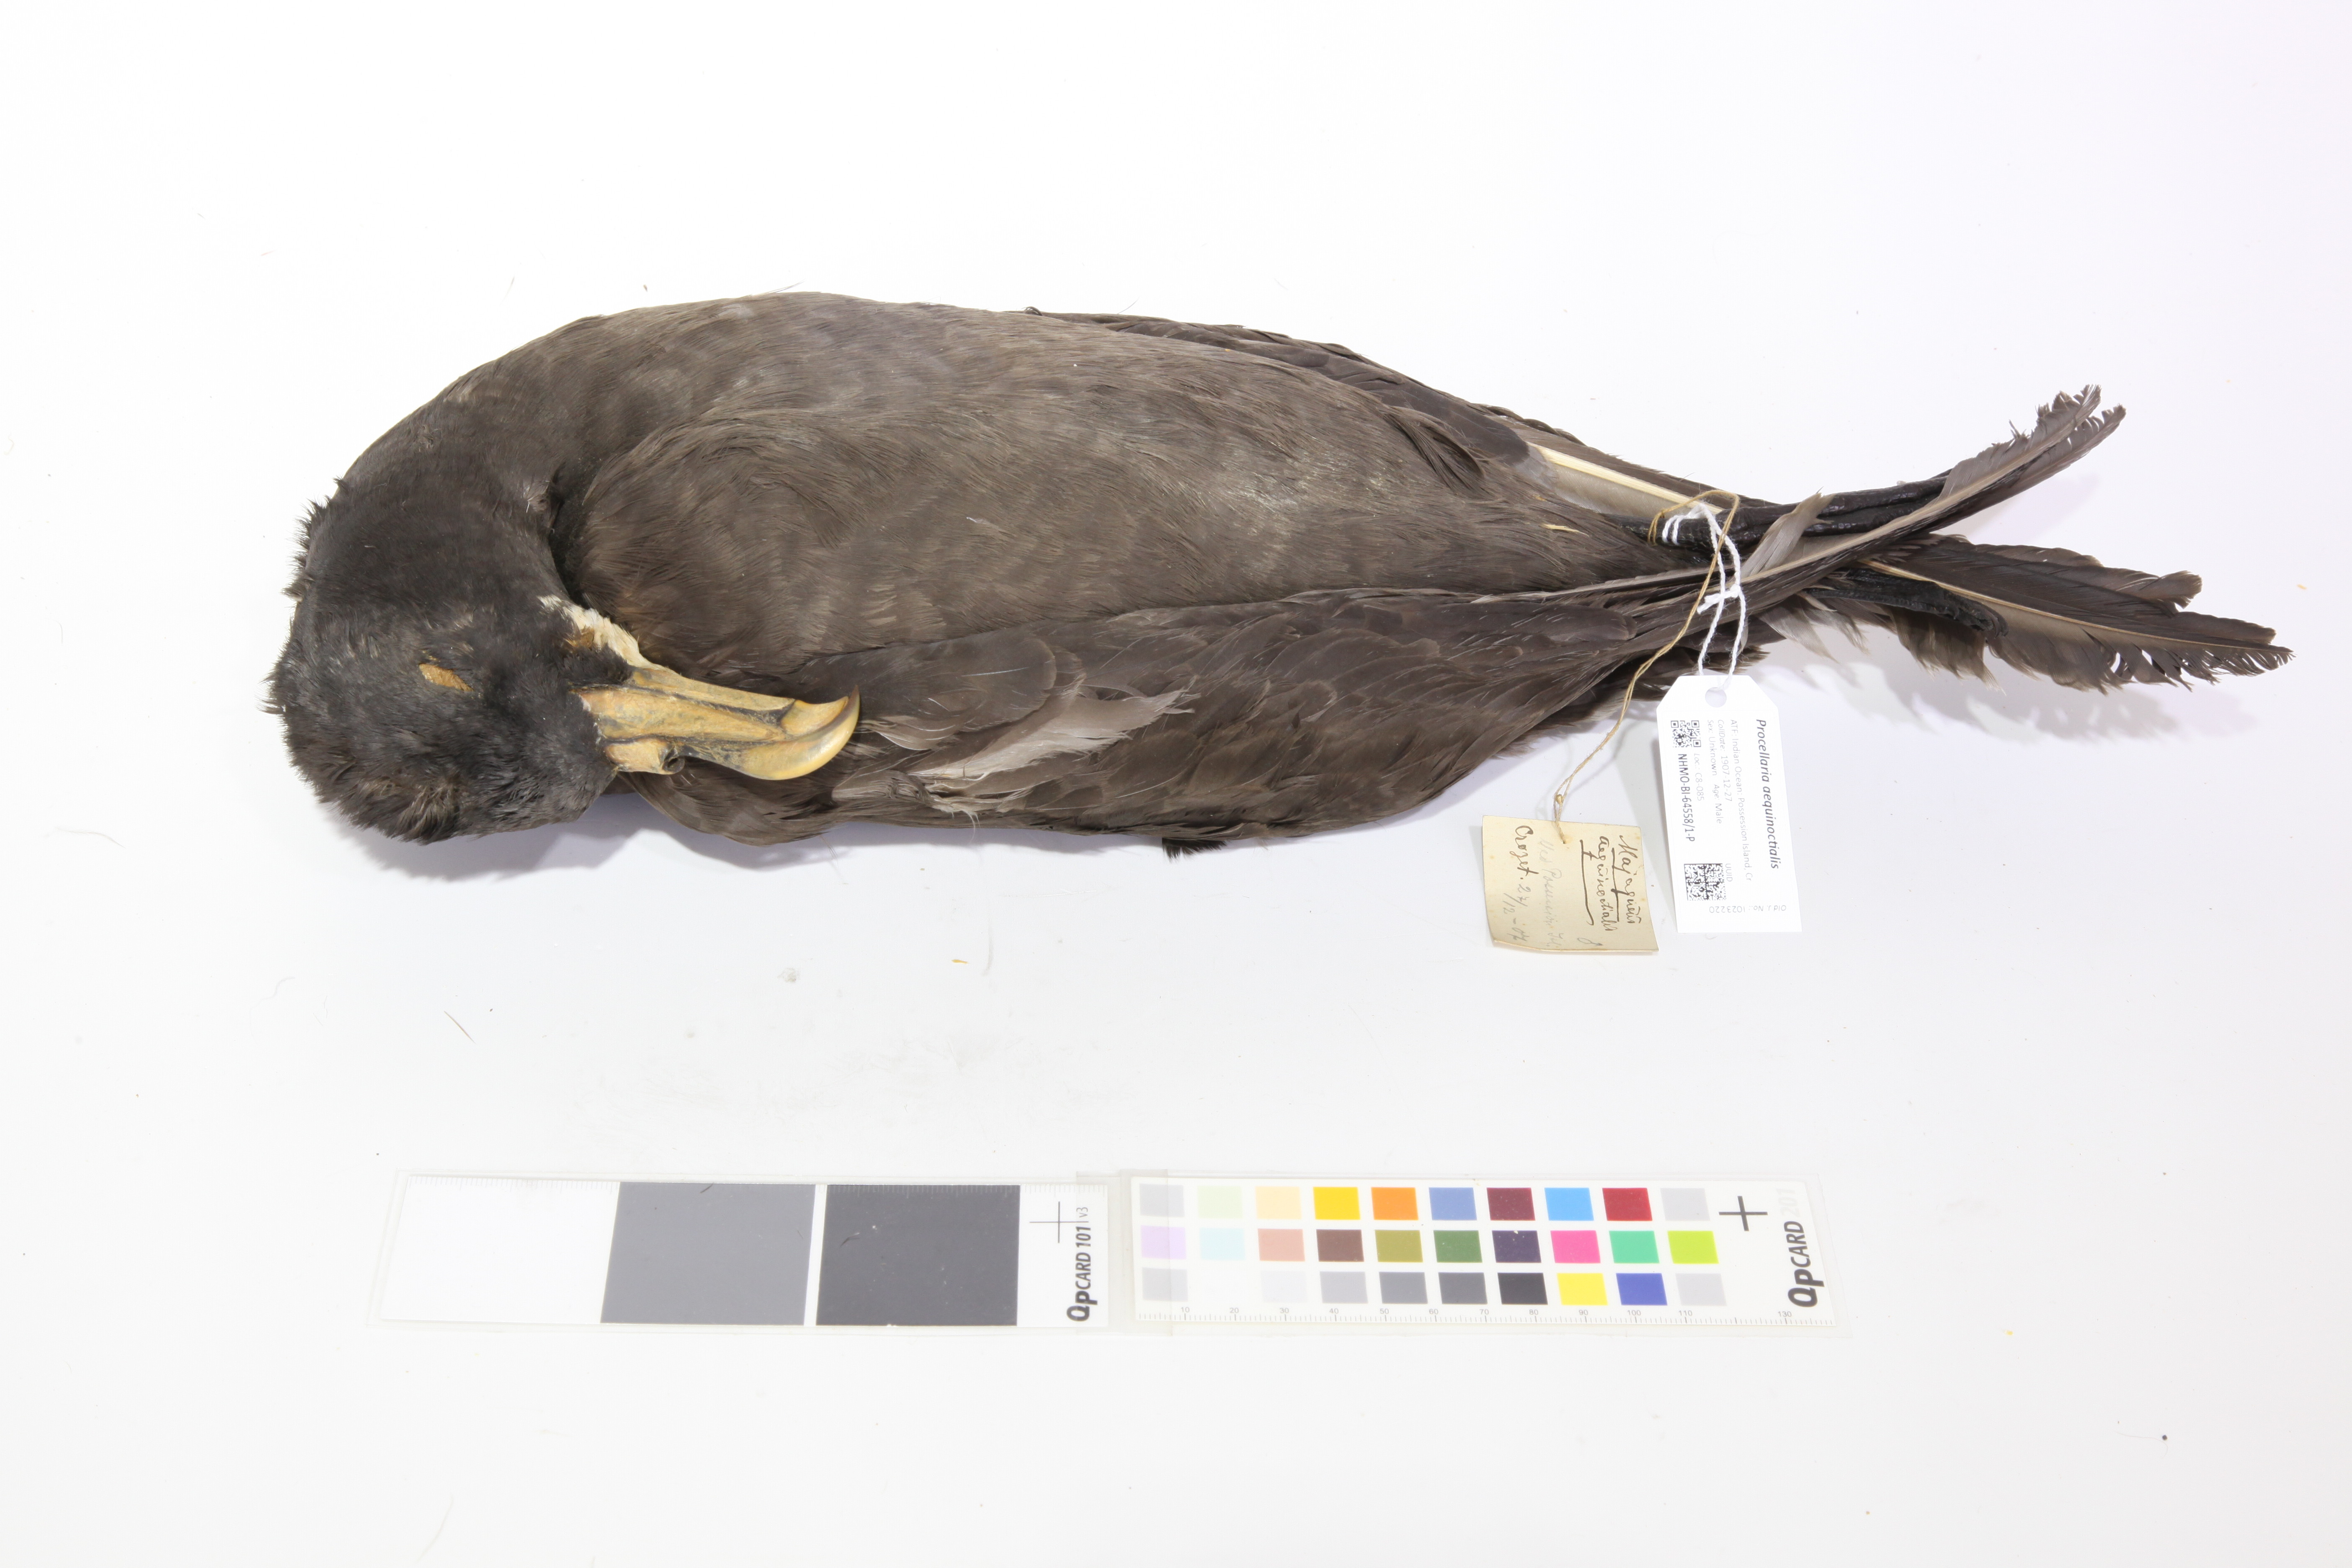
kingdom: Animalia
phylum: Chordata
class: Aves
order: Procellariiformes
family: Procellariidae
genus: Procellaria
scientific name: Procellaria aequinoctialis
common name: White-chinned petrel
